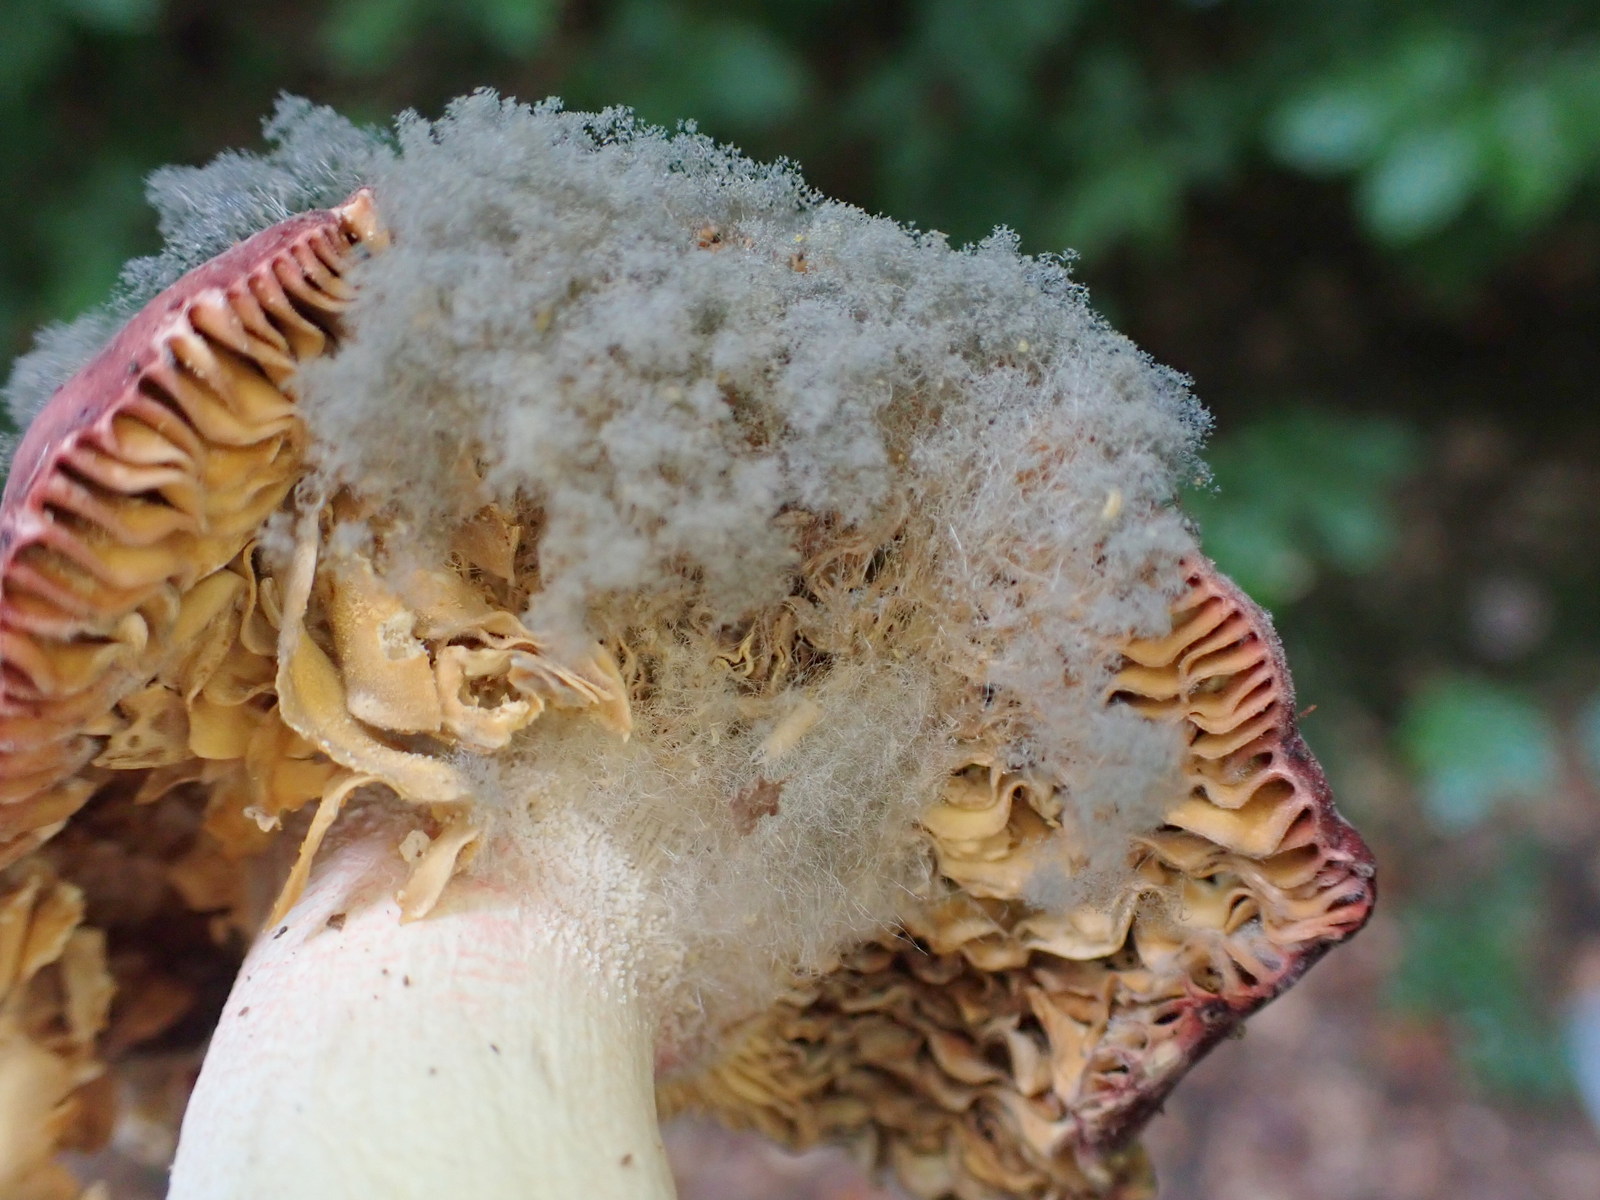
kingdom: Fungi
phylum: Mucoromycota
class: Mucoromycetes
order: Mucorales
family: Rhizopodaceae
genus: Syzygites
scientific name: Syzygites megalocarpus
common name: nissenål
